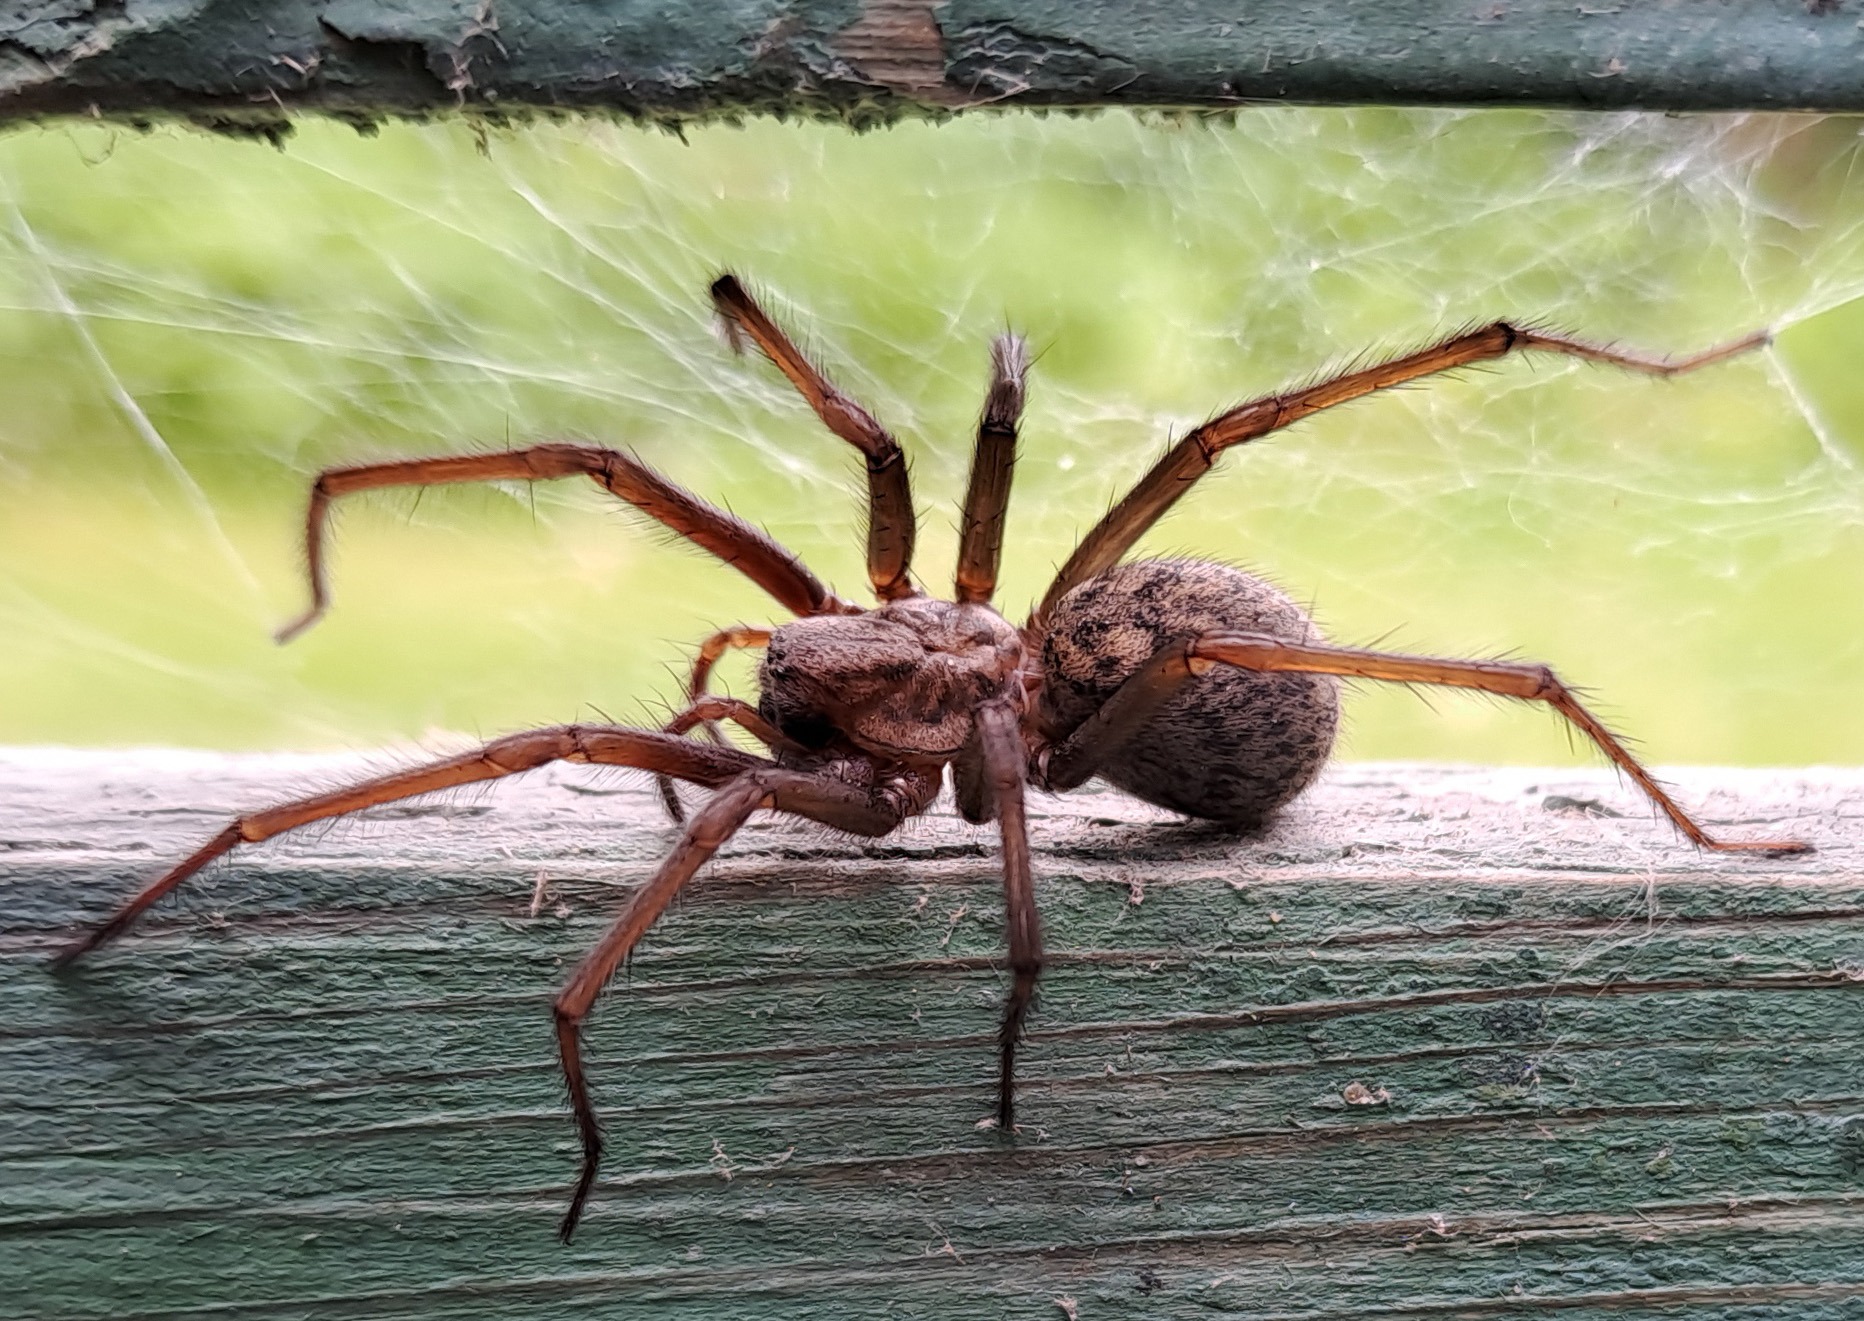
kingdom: Animalia
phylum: Arthropoda
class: Arachnida
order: Araneae
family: Agelenidae
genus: Eratigena
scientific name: Eratigena atrica
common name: Stor husedderkop
